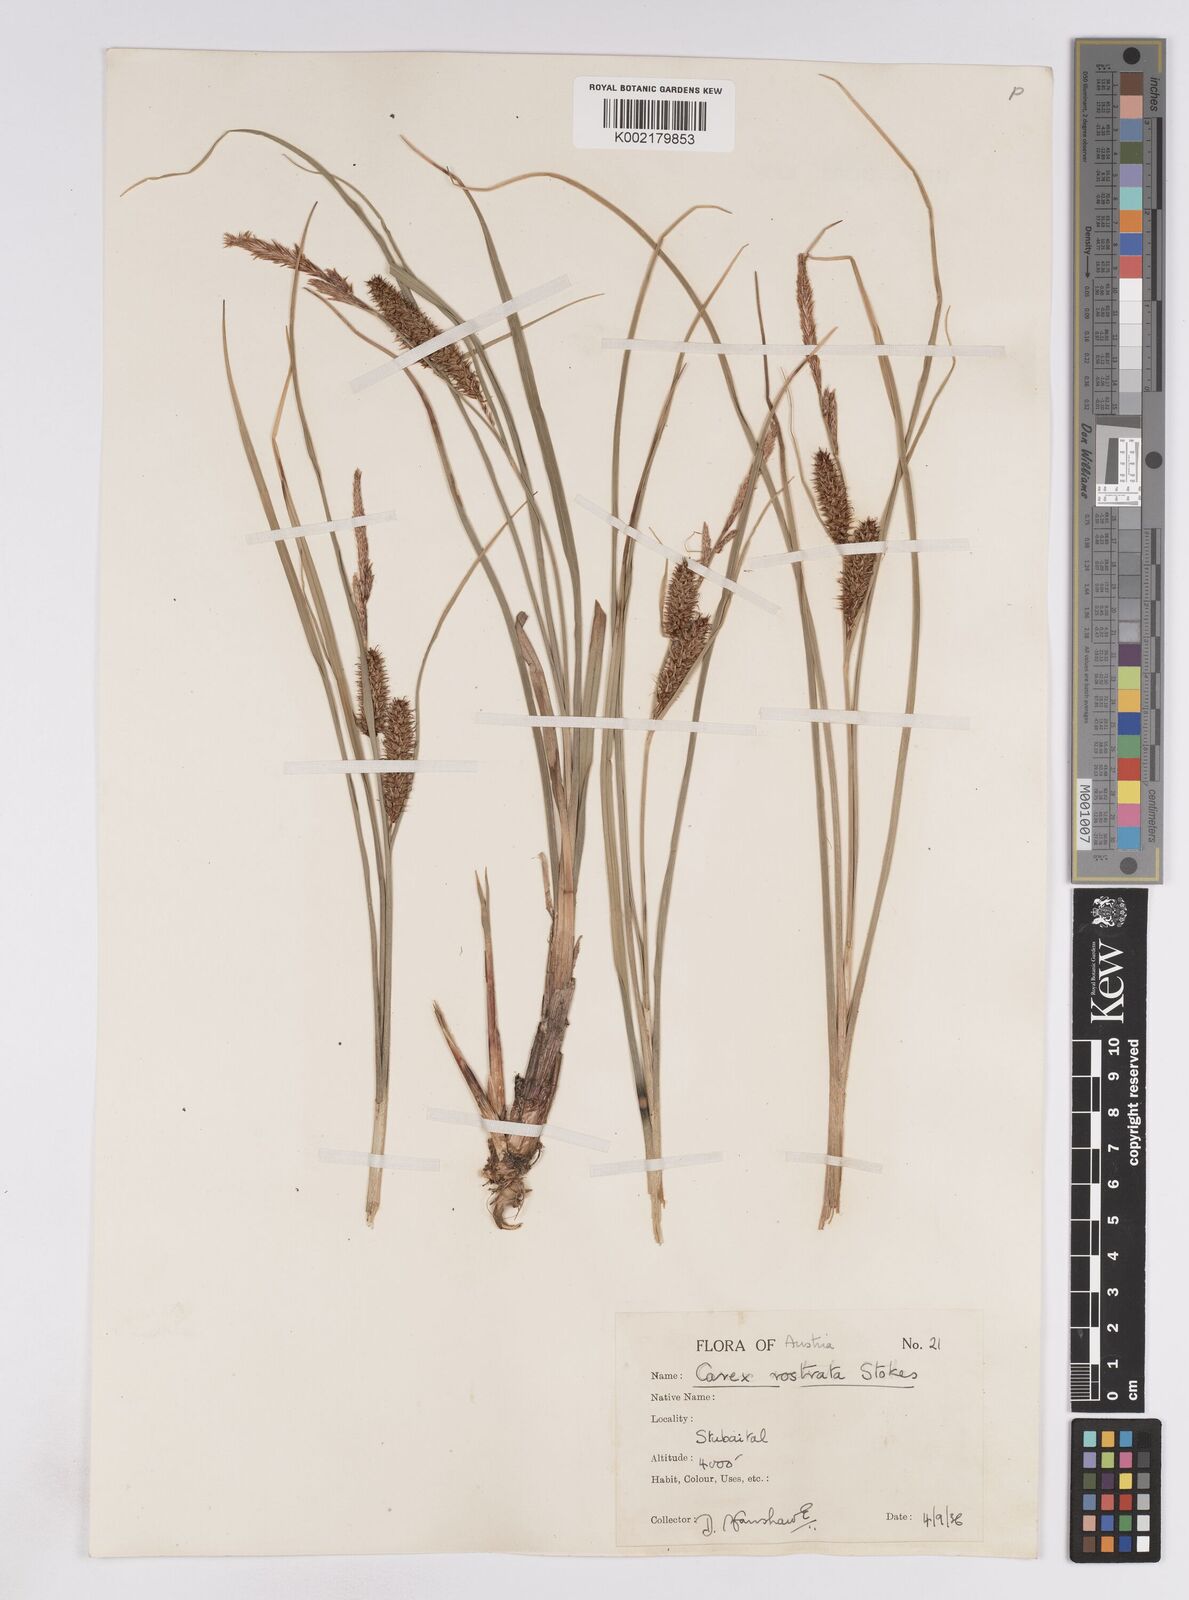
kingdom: Plantae
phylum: Tracheophyta
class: Liliopsida
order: Poales
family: Cyperaceae
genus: Carex
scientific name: Carex rostrata
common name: Bottle sedge
